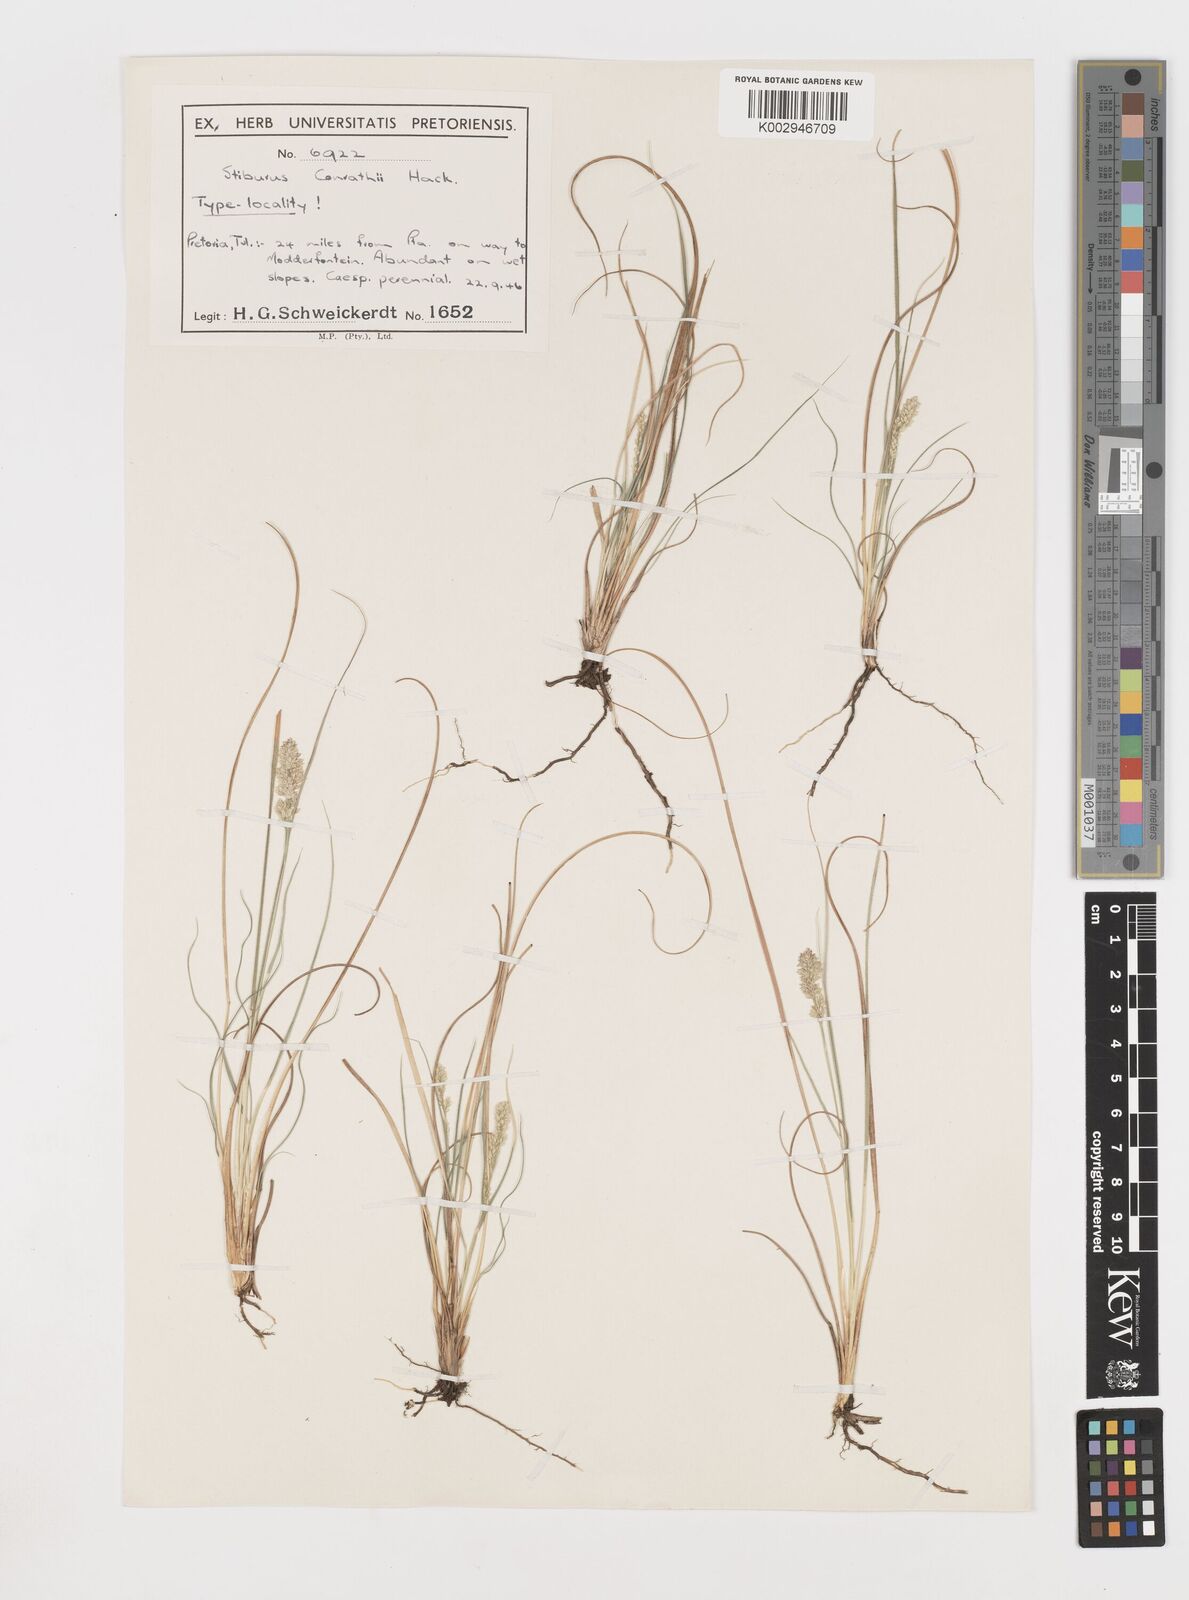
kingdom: Plantae
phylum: Tracheophyta
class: Liliopsida
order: Poales
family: Poaceae
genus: Stiburus
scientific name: Stiburus conrathii
